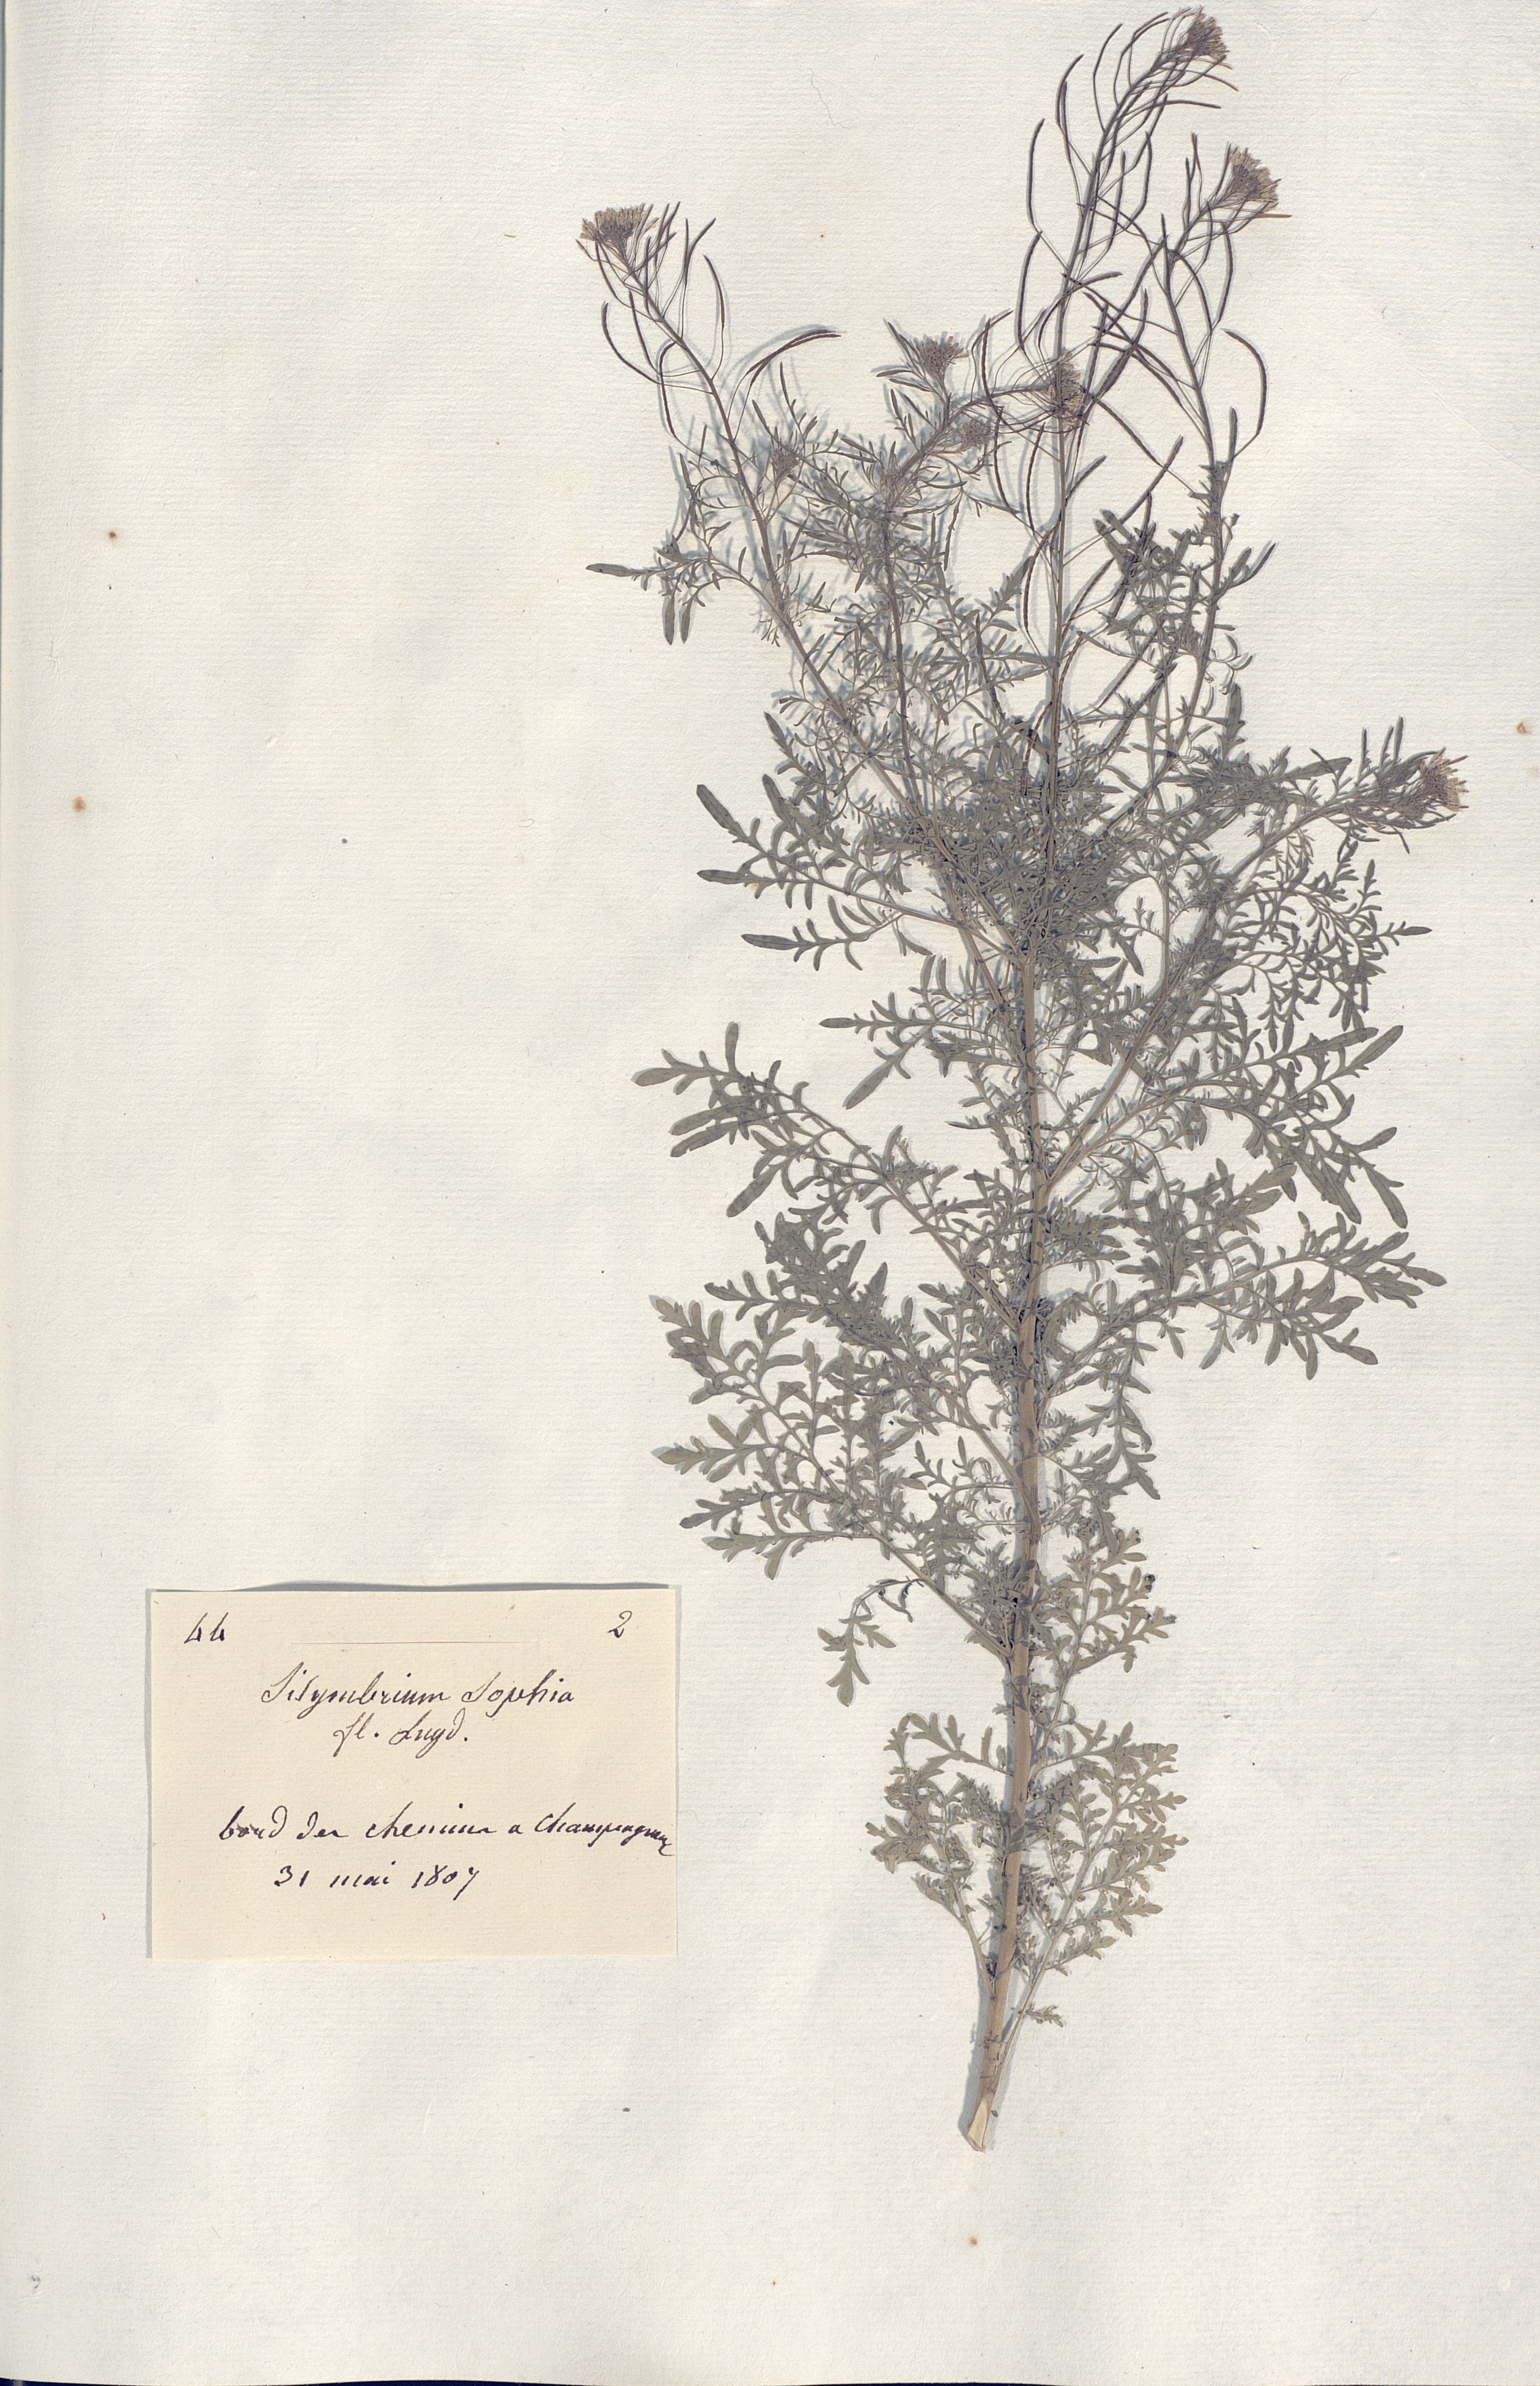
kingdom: Plantae
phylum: Tracheophyta
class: Magnoliopsida
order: Brassicales
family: Brassicaceae
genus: Sisymbrium
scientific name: Sisymbrium sophia
